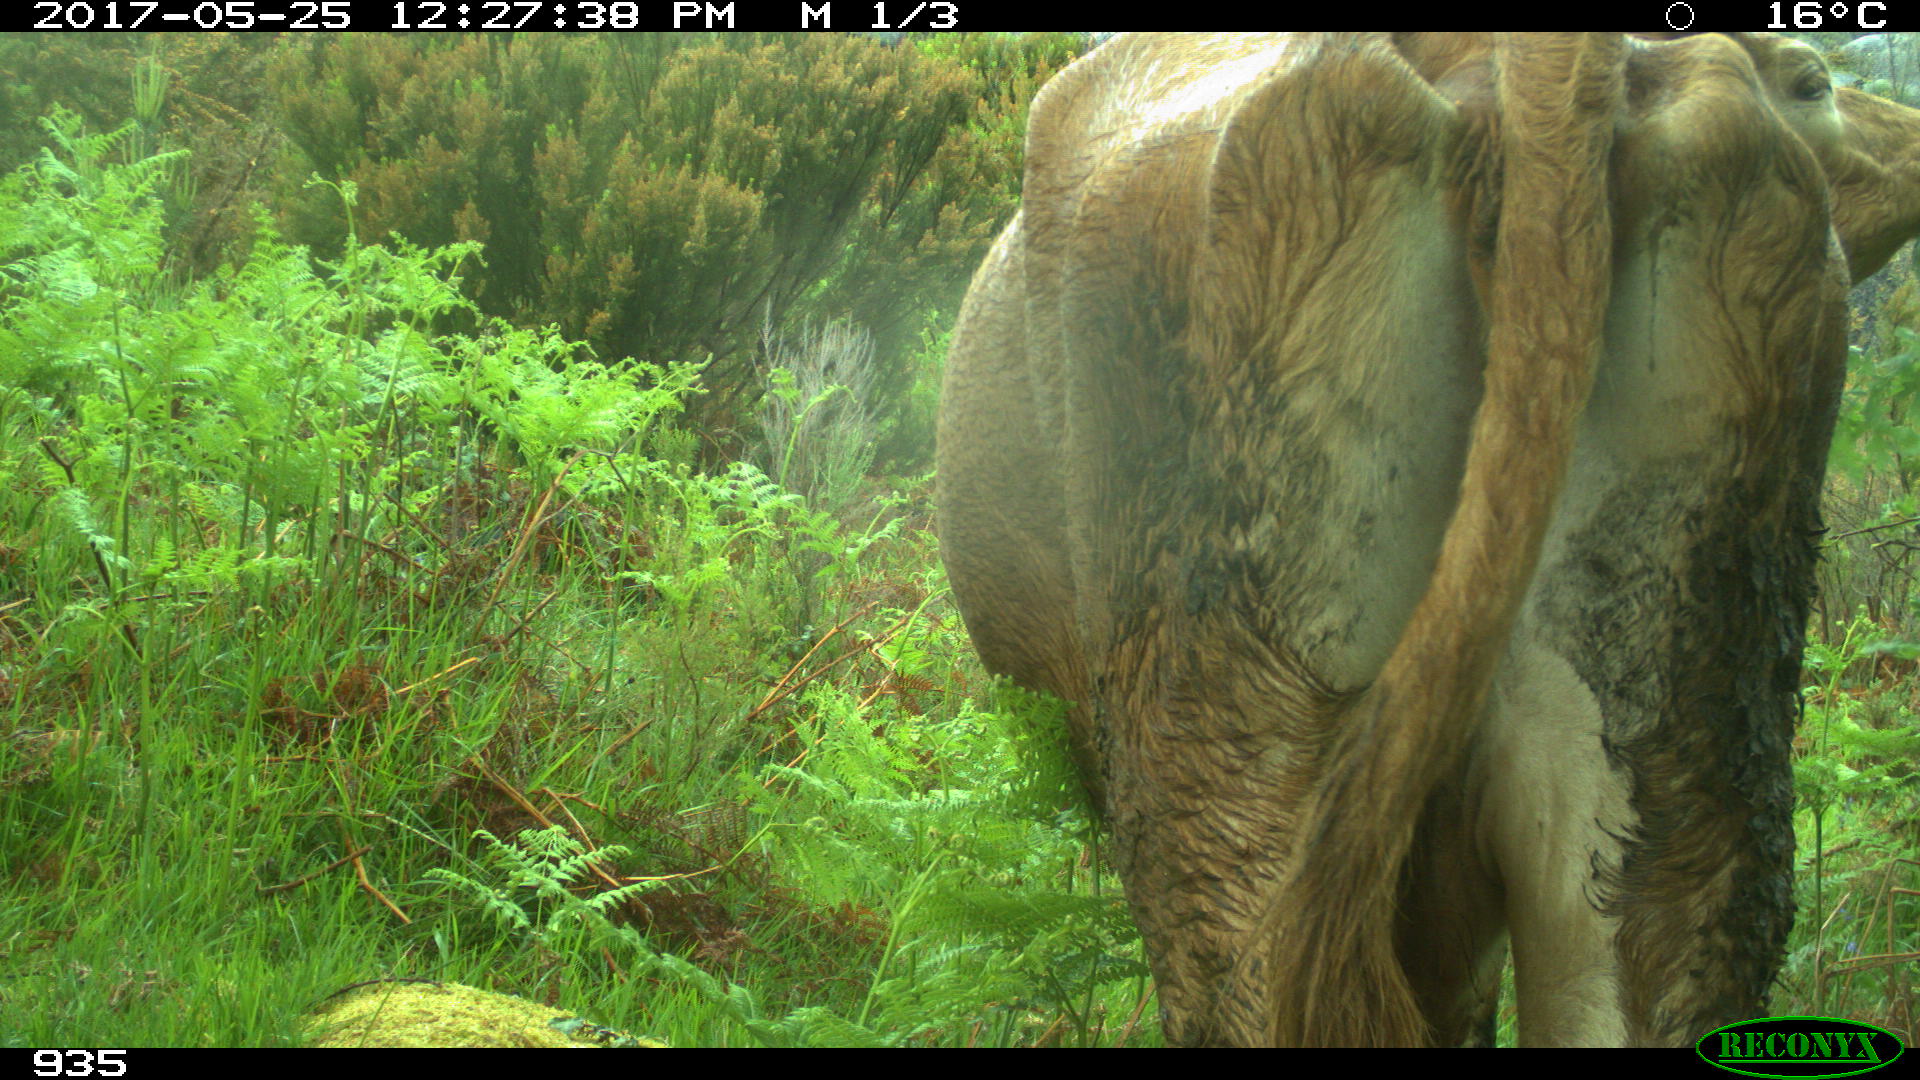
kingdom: Animalia
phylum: Chordata
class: Mammalia
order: Artiodactyla
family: Bovidae
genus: Bos
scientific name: Bos taurus
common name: Domesticated cattle
